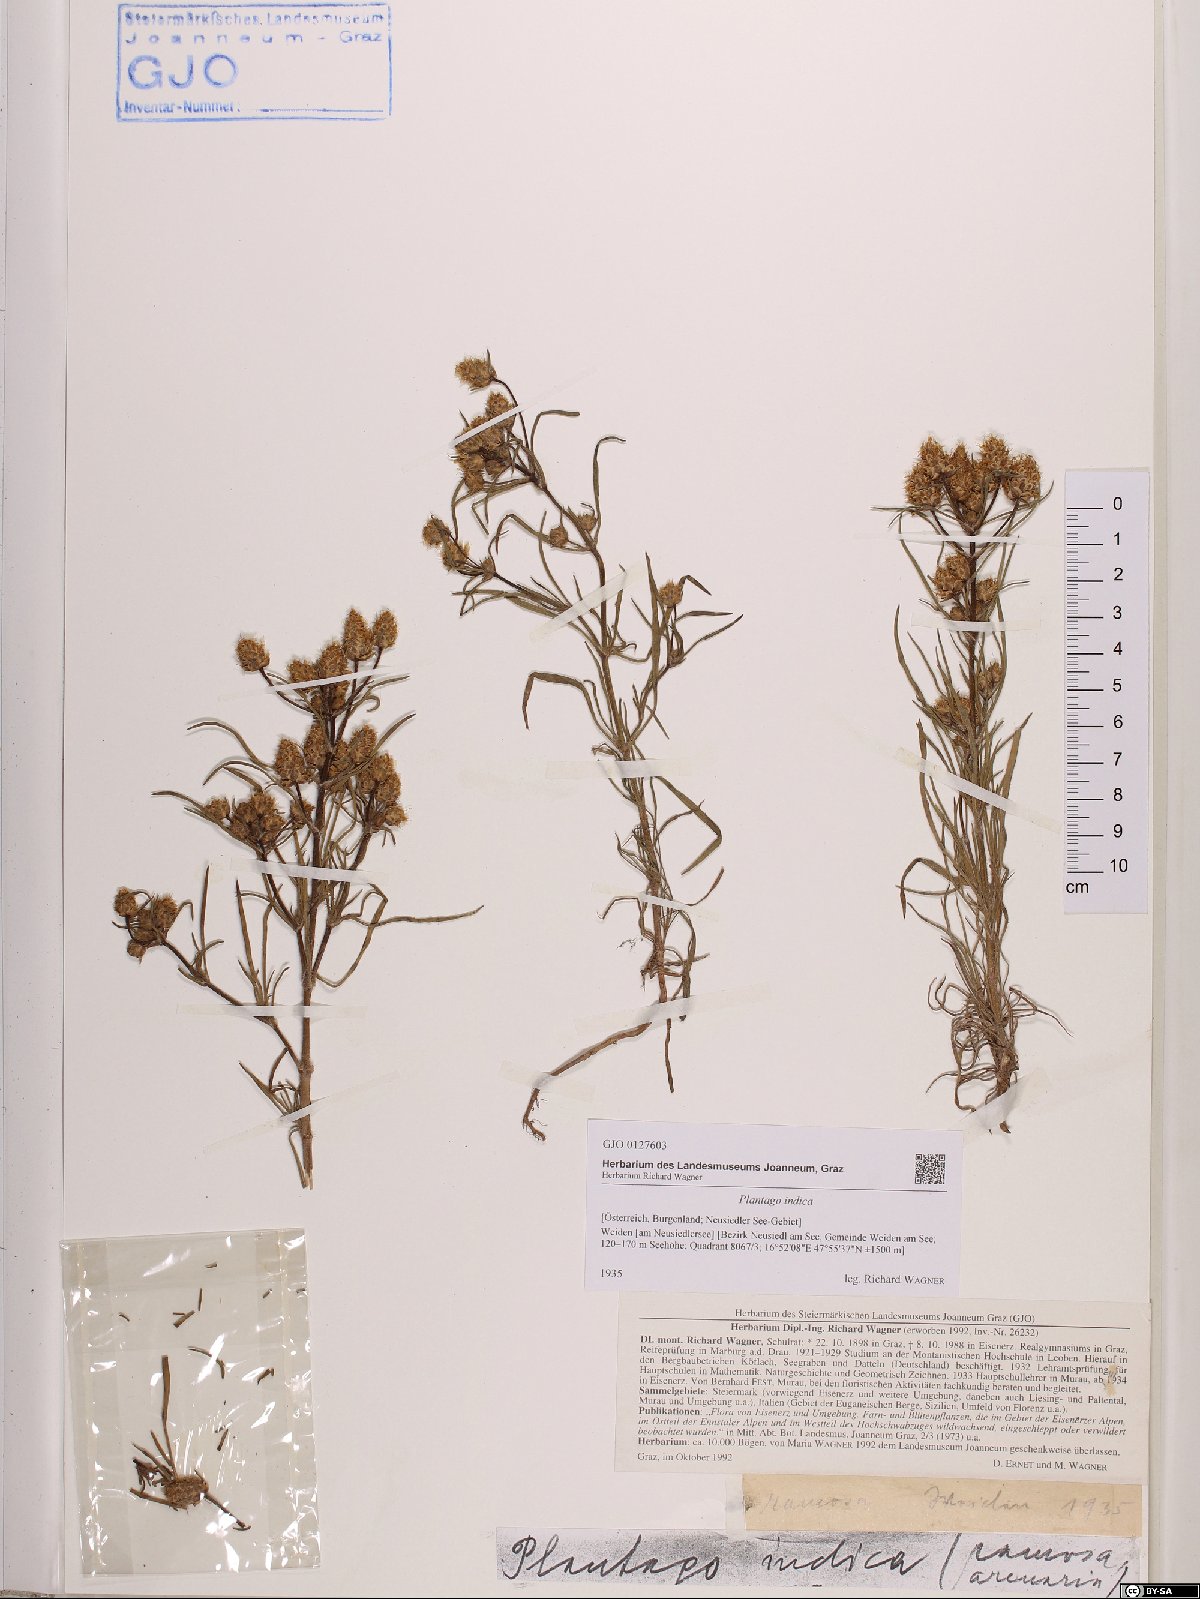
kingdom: Plantae
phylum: Tracheophyta
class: Magnoliopsida
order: Lamiales
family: Plantaginaceae
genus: Plantago
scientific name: Plantago arenaria
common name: Branched plantain
